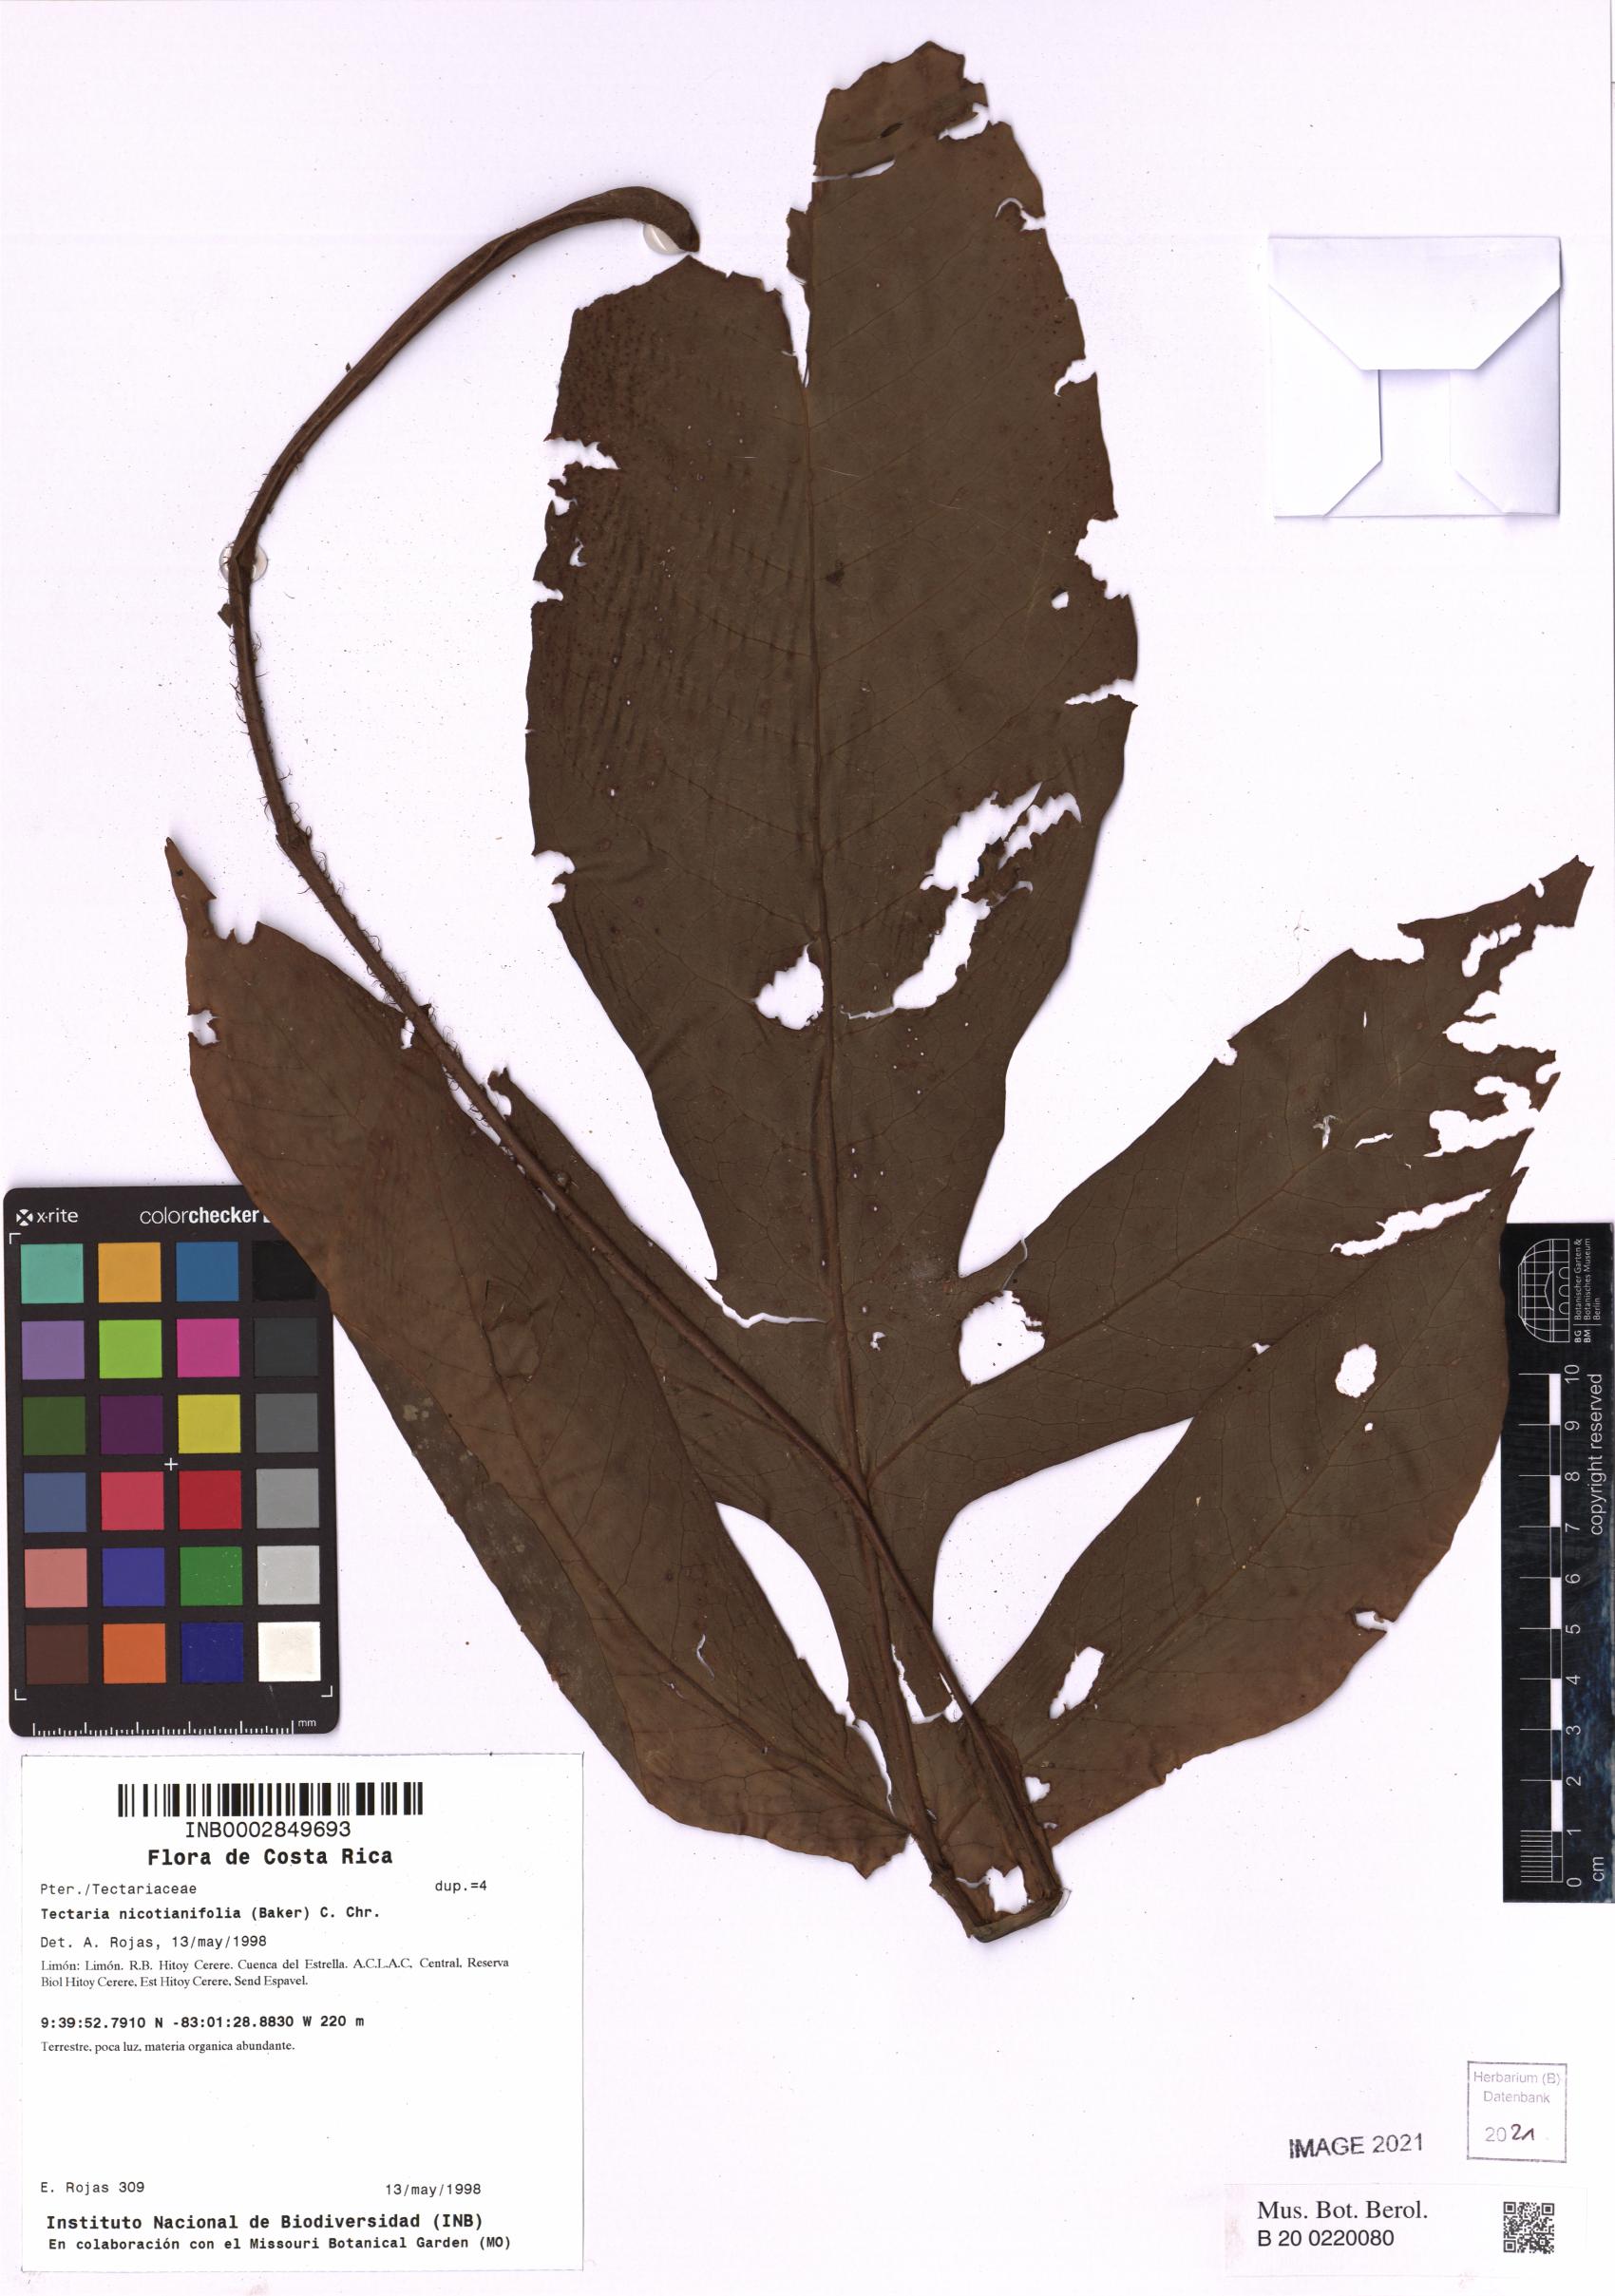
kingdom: Plantae
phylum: Tracheophyta
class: Polypodiopsida
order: Polypodiales
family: Tectariaceae
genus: Hypoderris
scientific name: Hypoderris nicotianifolia
